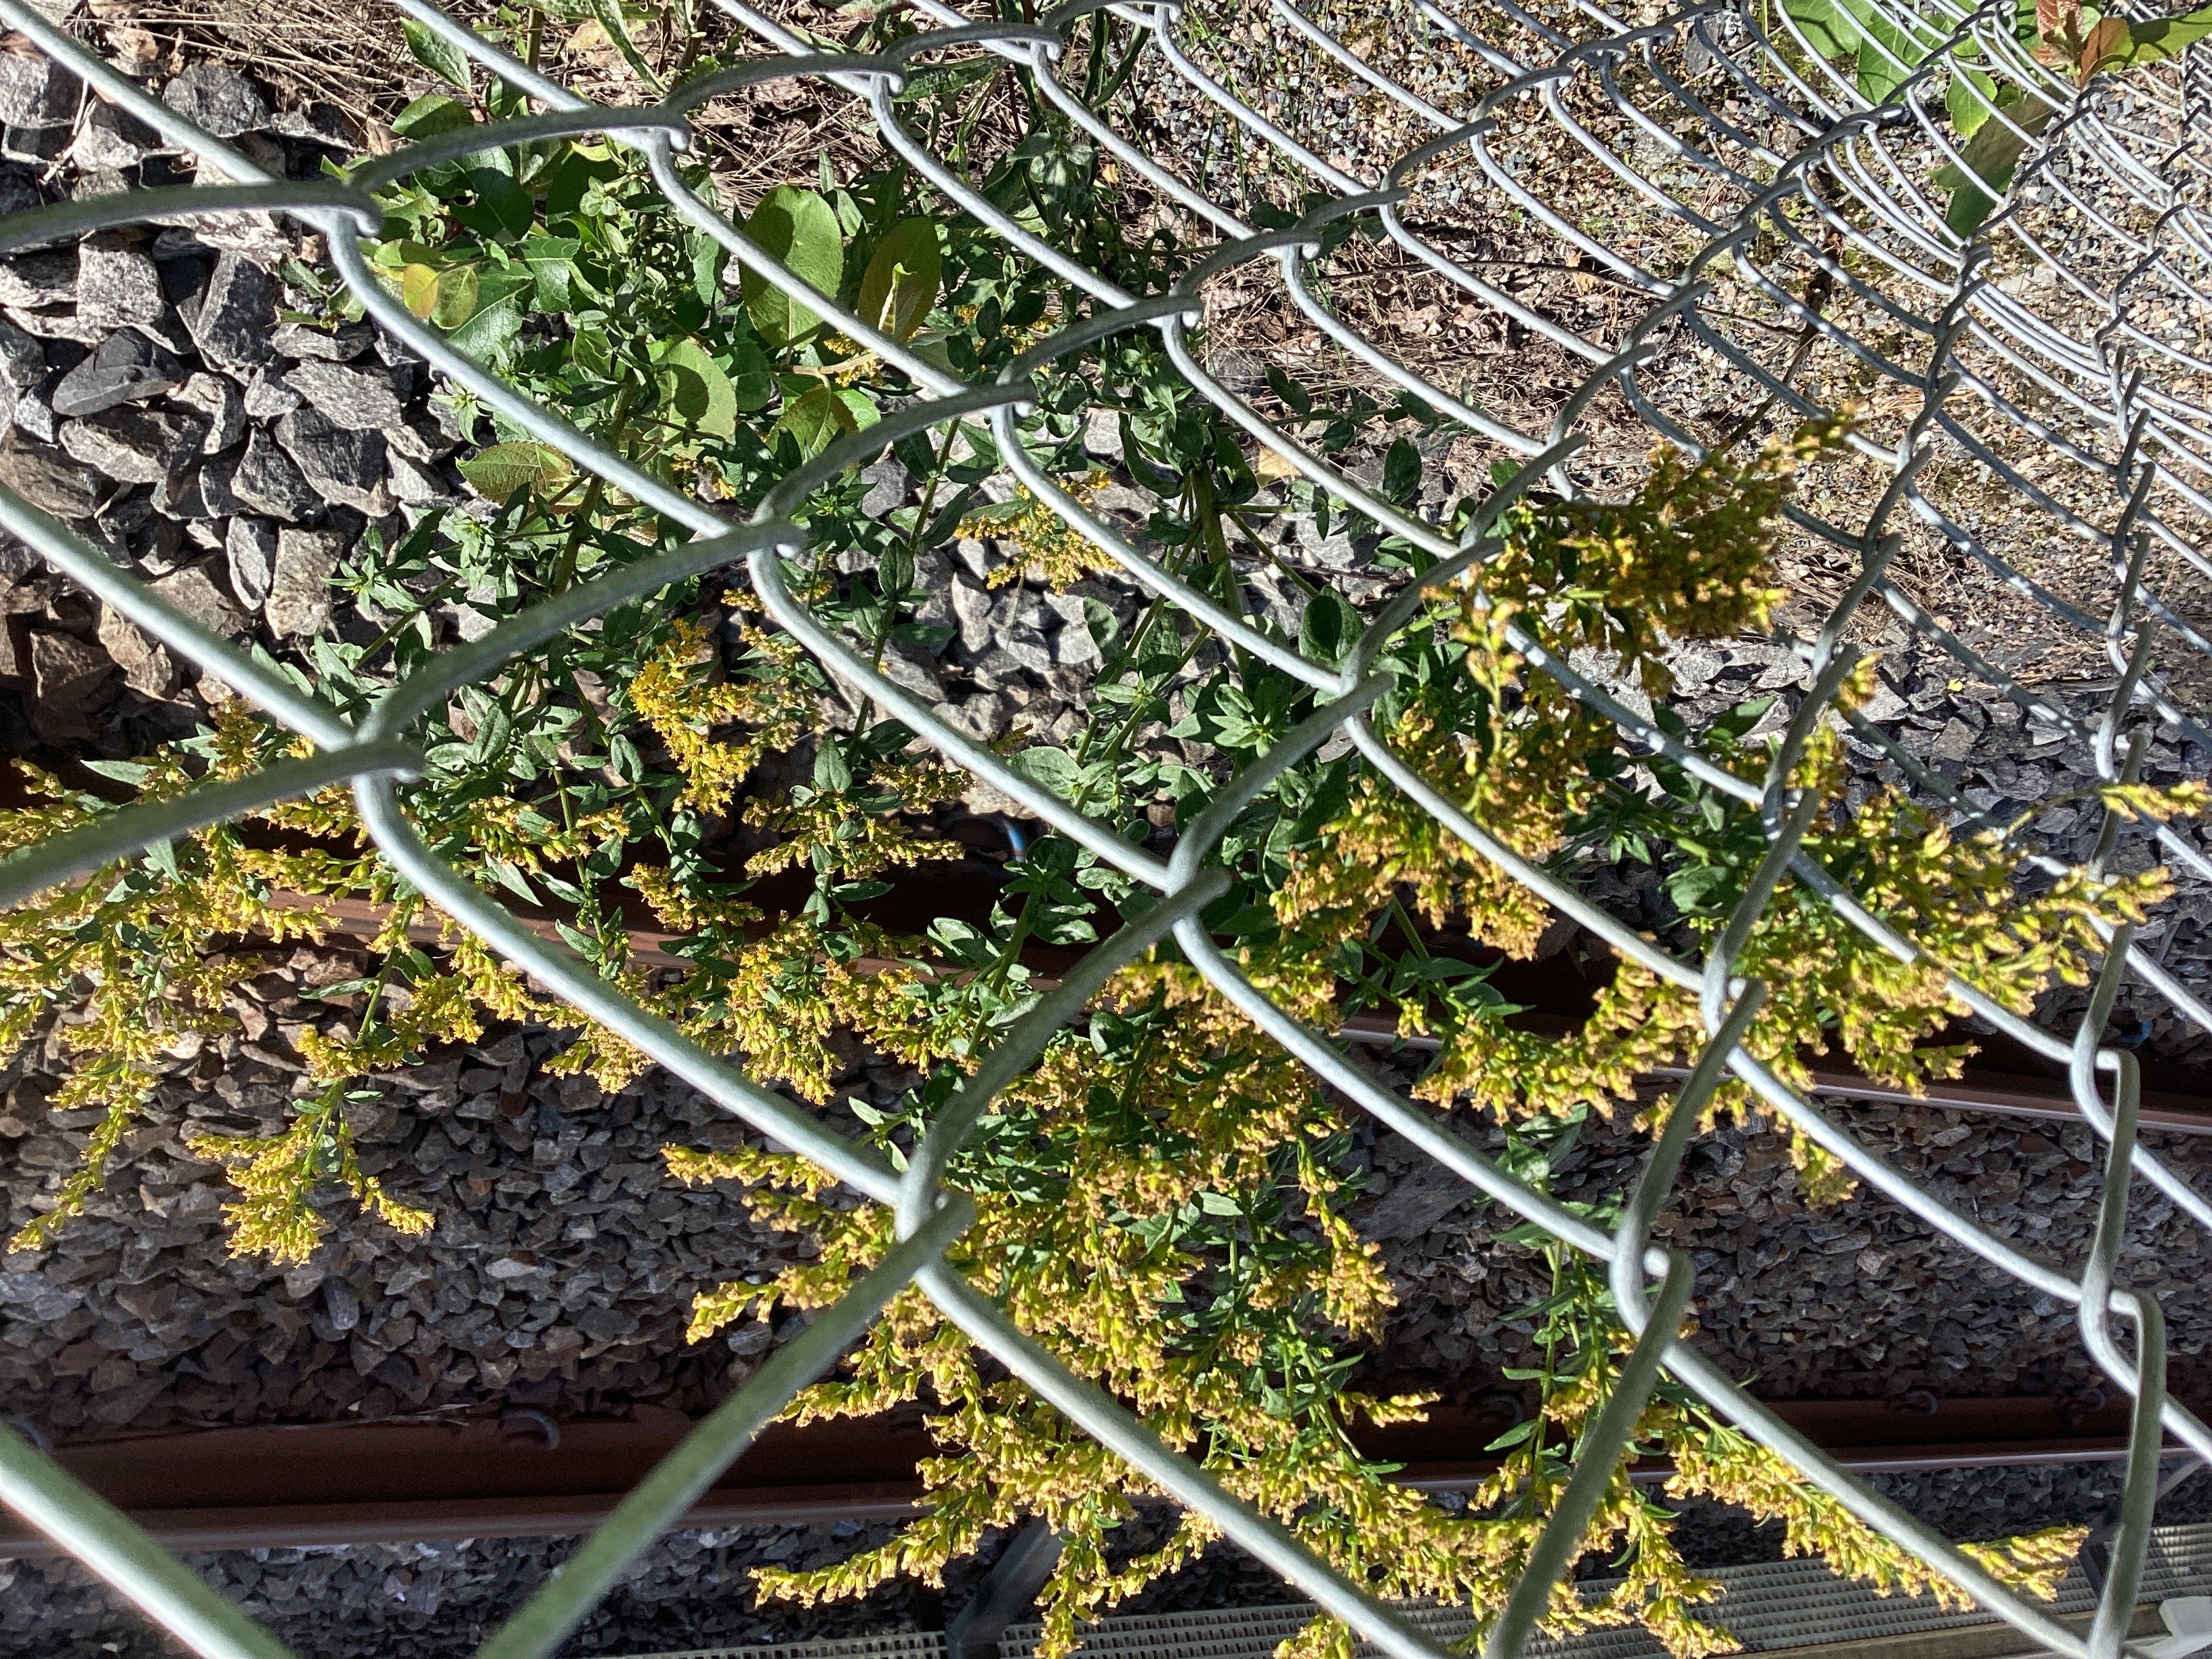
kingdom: Plantae
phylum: Tracheophyta
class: Magnoliopsida
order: Asterales
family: Asteraceae
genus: Solidago
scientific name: Solidago canadensis
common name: kanadagullris
